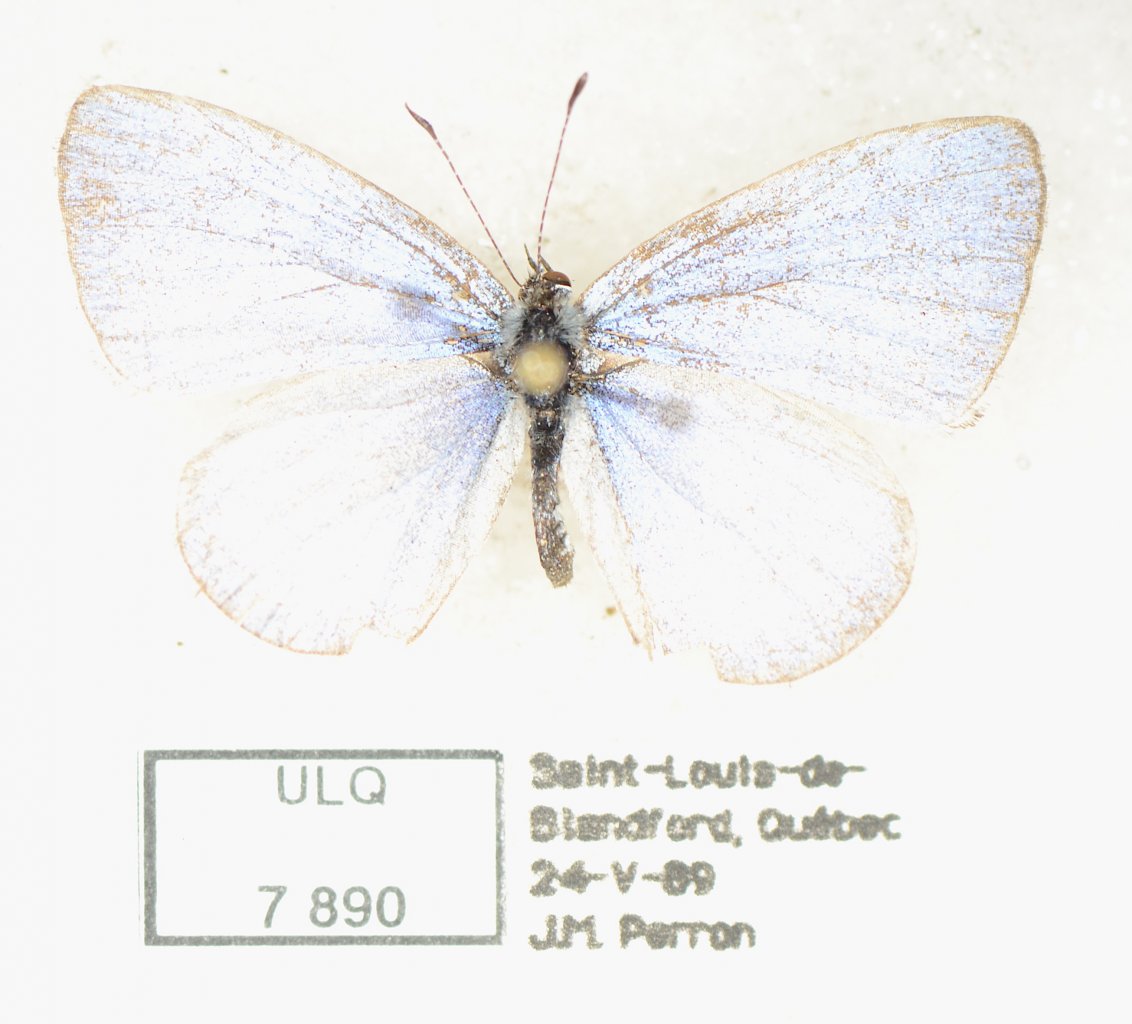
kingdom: Animalia
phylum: Arthropoda
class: Insecta
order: Lepidoptera
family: Lycaenidae
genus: Celastrina
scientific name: Celastrina lucia
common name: Northern Spring Azure
